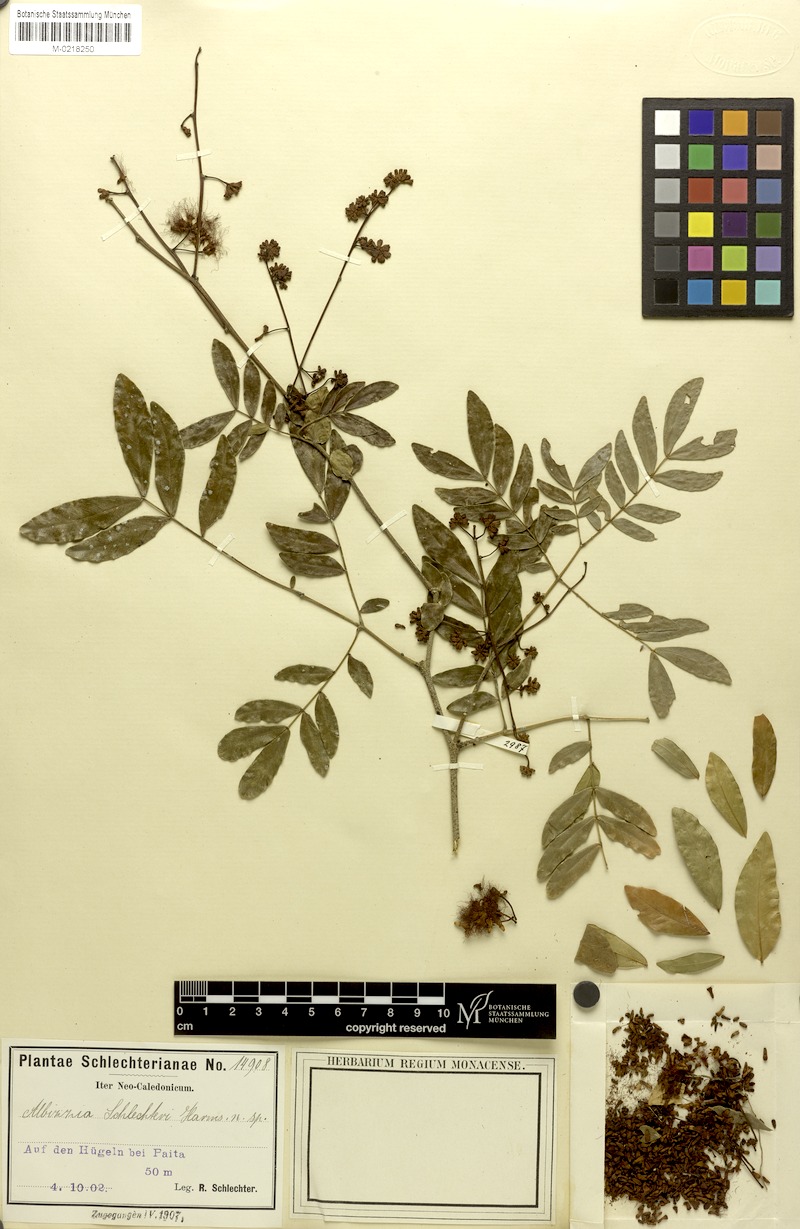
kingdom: Plantae
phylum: Tracheophyta
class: Magnoliopsida
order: Fabales
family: Fabaceae
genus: Archidendropsis
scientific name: Archidendropsis fournieri
